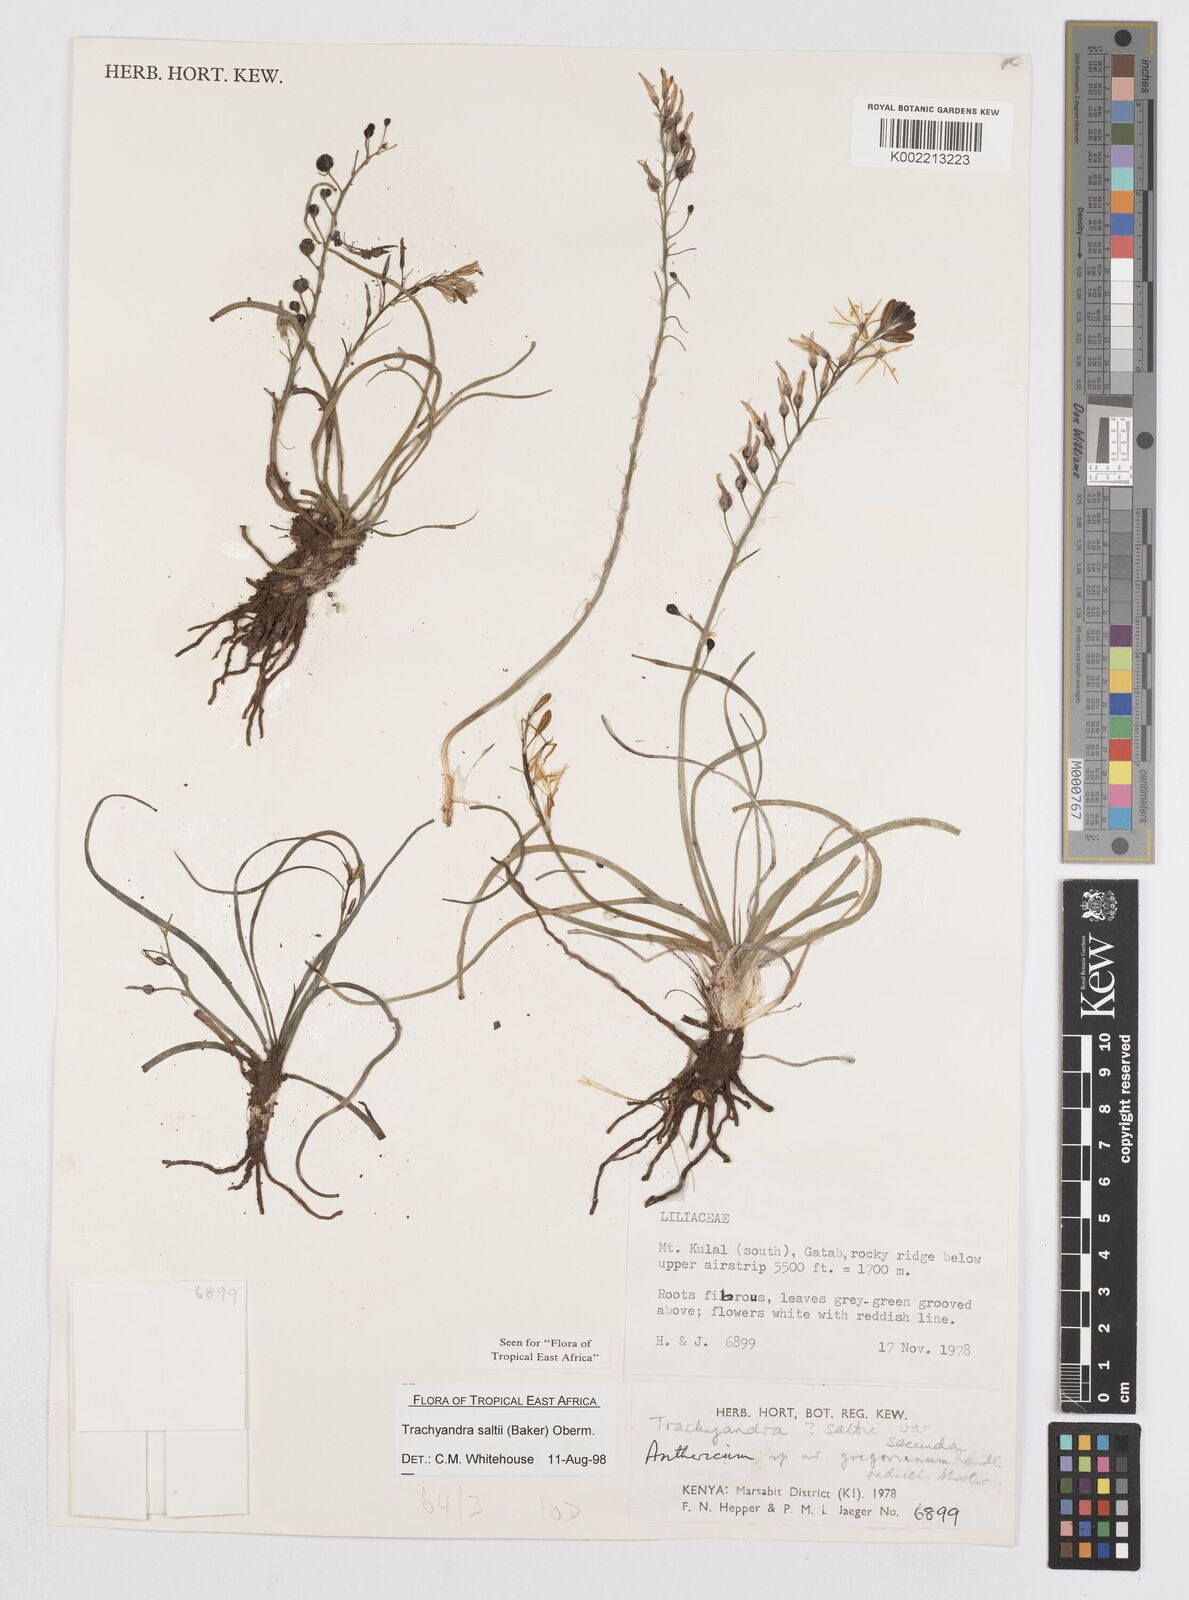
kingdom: Plantae
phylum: Tracheophyta
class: Liliopsida
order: Asparagales
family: Asphodelaceae
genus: Trachyandra
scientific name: Trachyandra saltii
